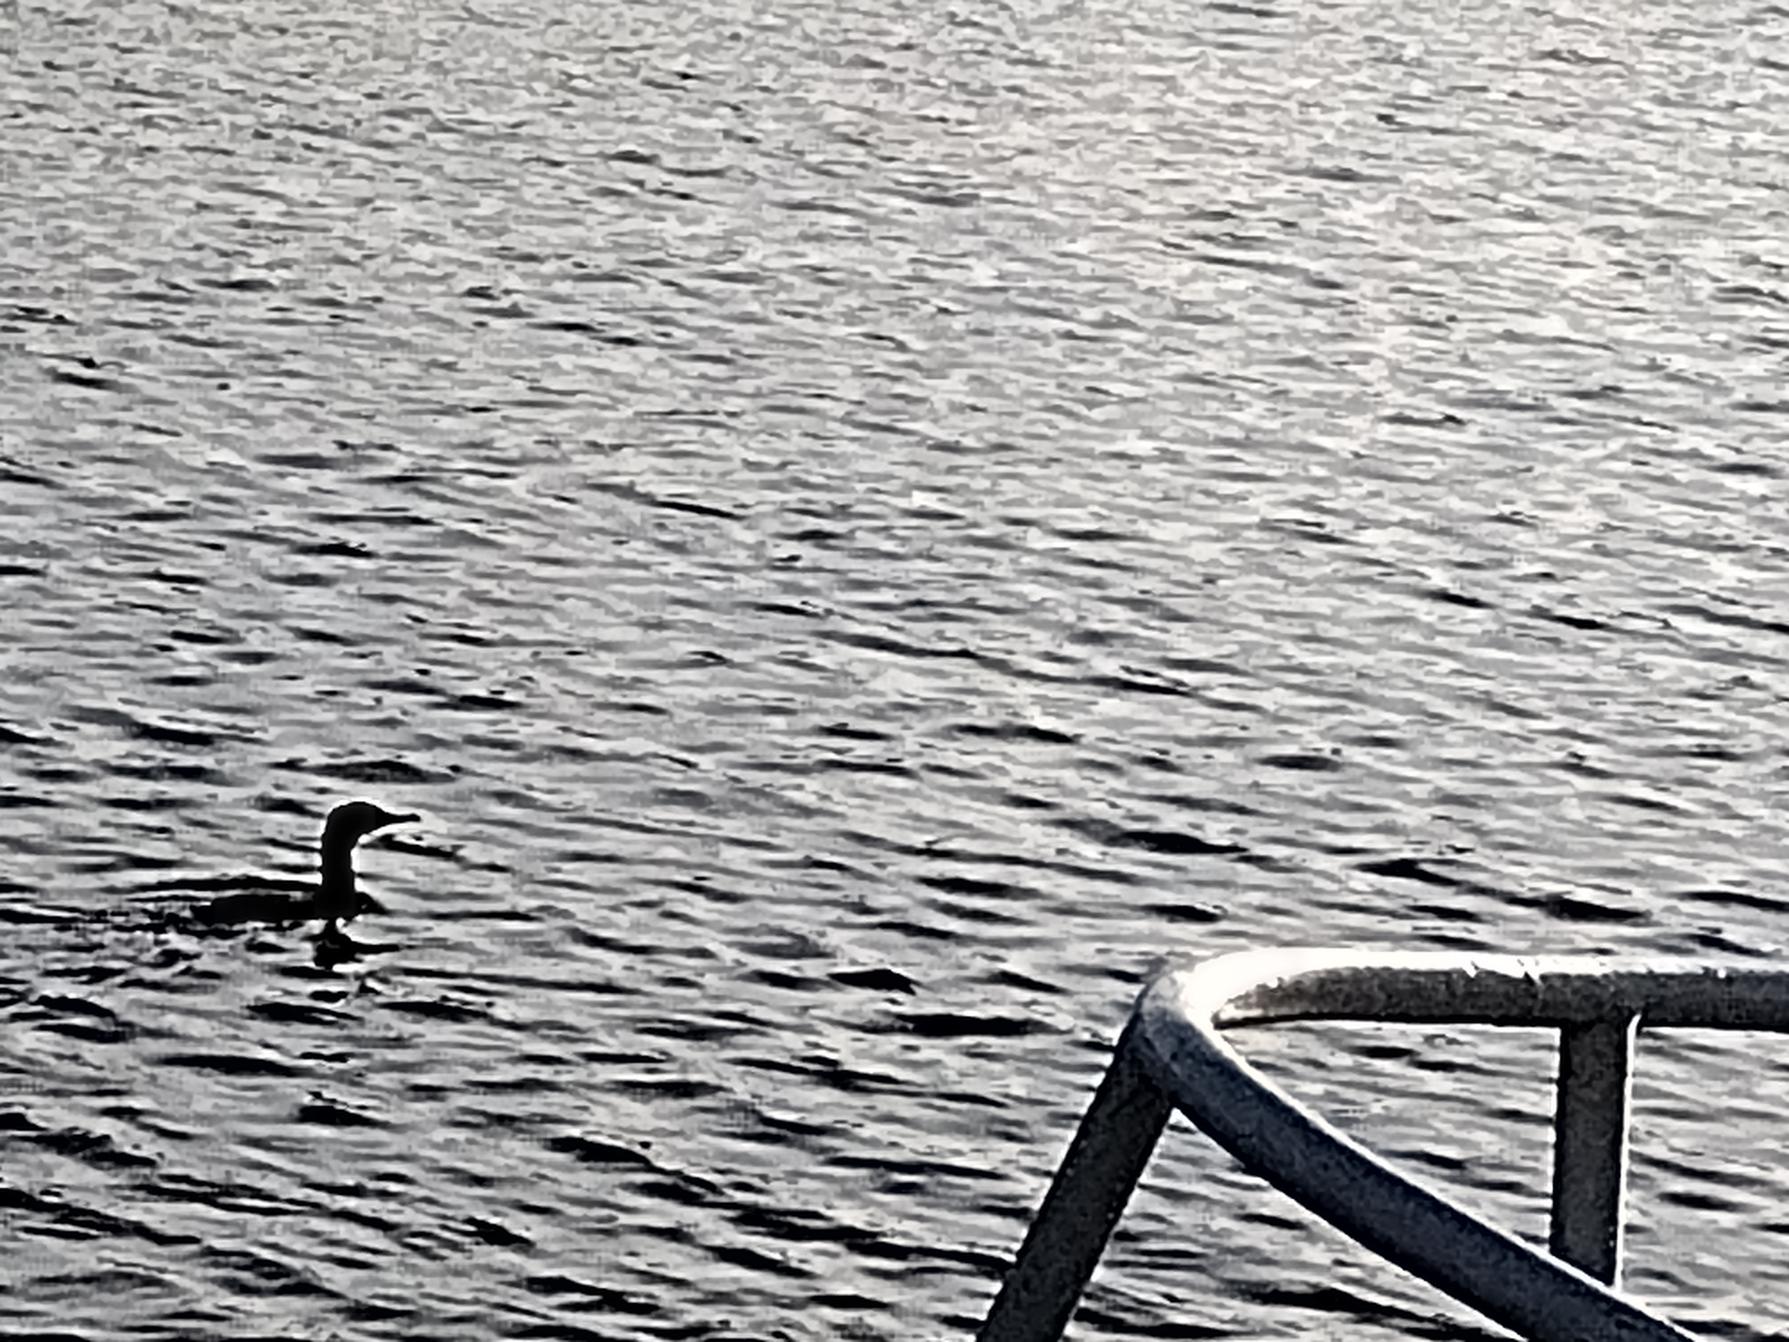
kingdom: Animalia
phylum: Chordata
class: Aves
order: Suliformes
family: Phalacrocoracidae
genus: Phalacrocorax
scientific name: Phalacrocorax carbo
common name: Skarv
